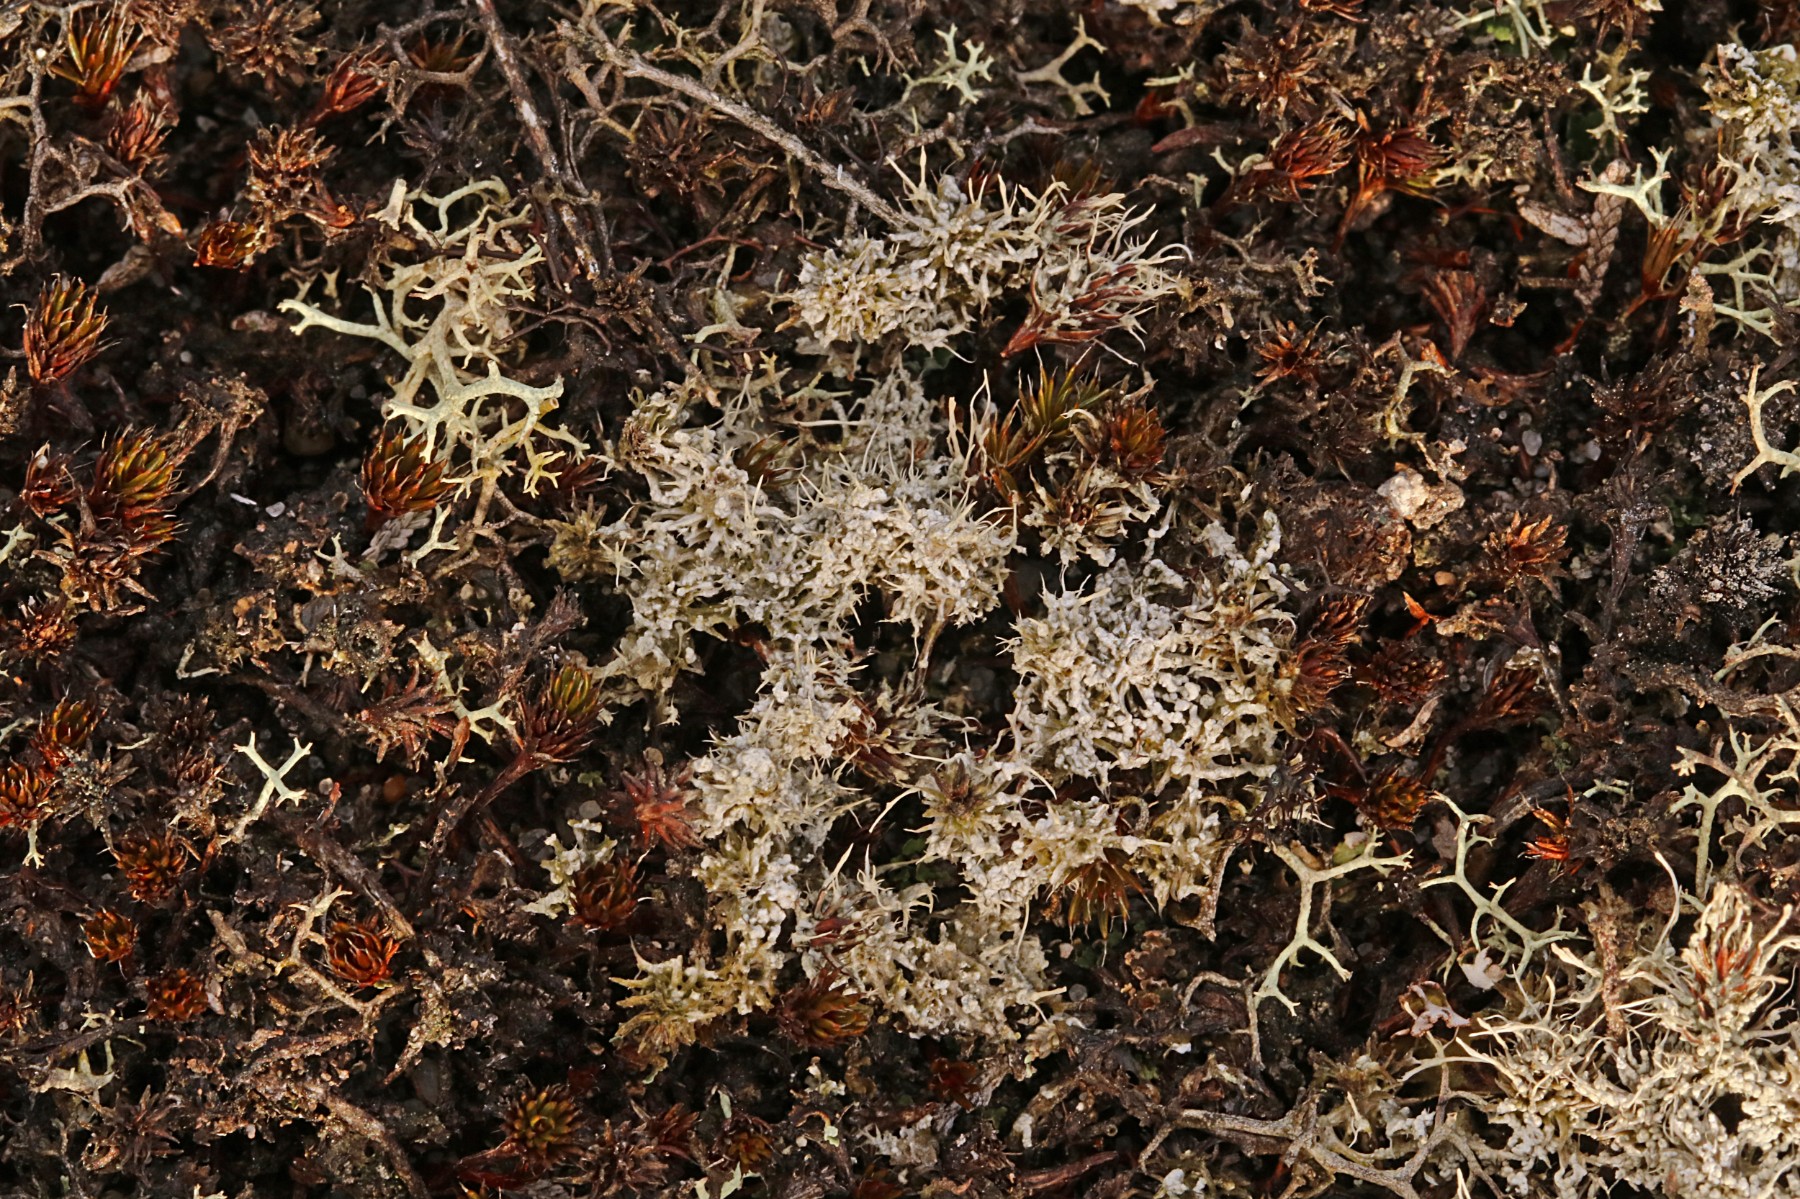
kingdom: Fungi
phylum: Ascomycota
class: Lecanoromycetes
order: Pertusariales
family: Ochrolechiaceae
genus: Ochrolechia
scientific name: Ochrolechia frigida
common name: fjeld-blegskivelav
